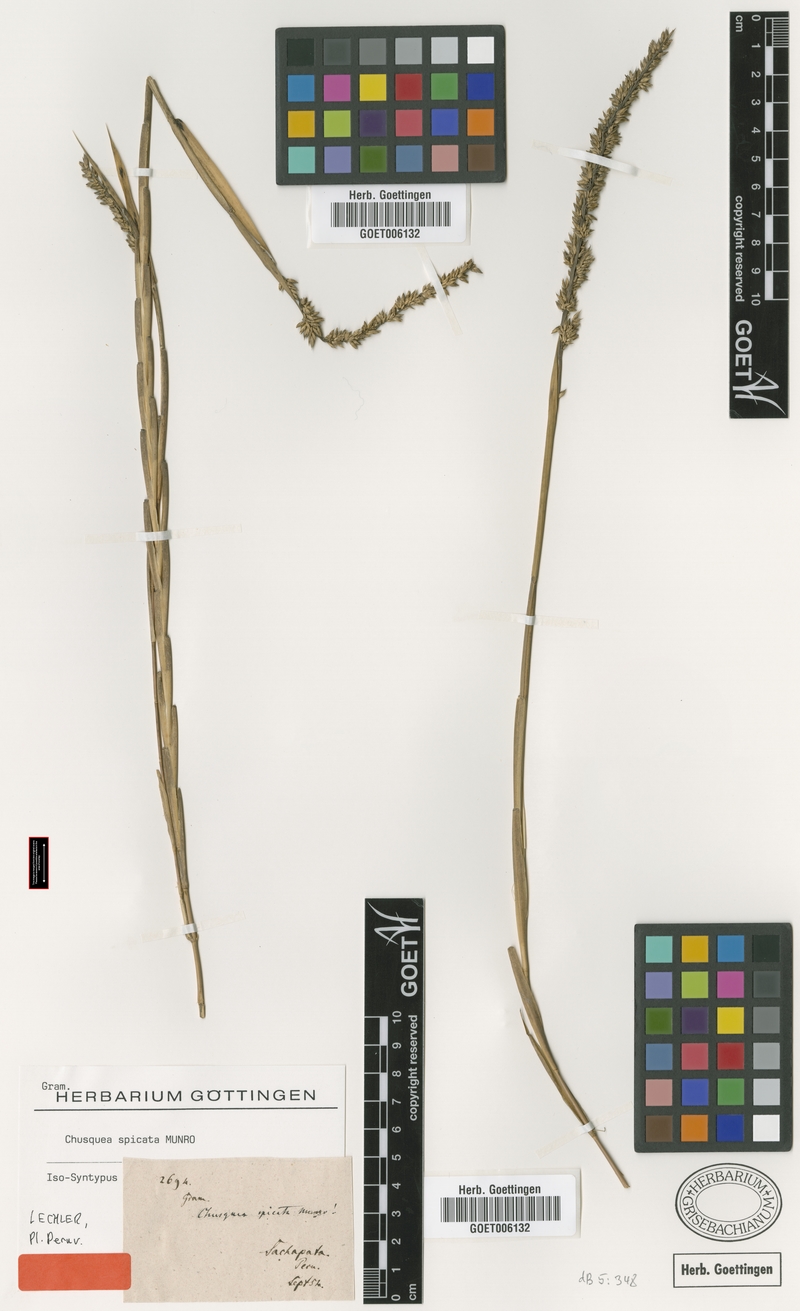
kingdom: Plantae
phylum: Tracheophyta
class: Liliopsida
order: Poales
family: Poaceae
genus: Chusquea
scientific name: Chusquea spicata
